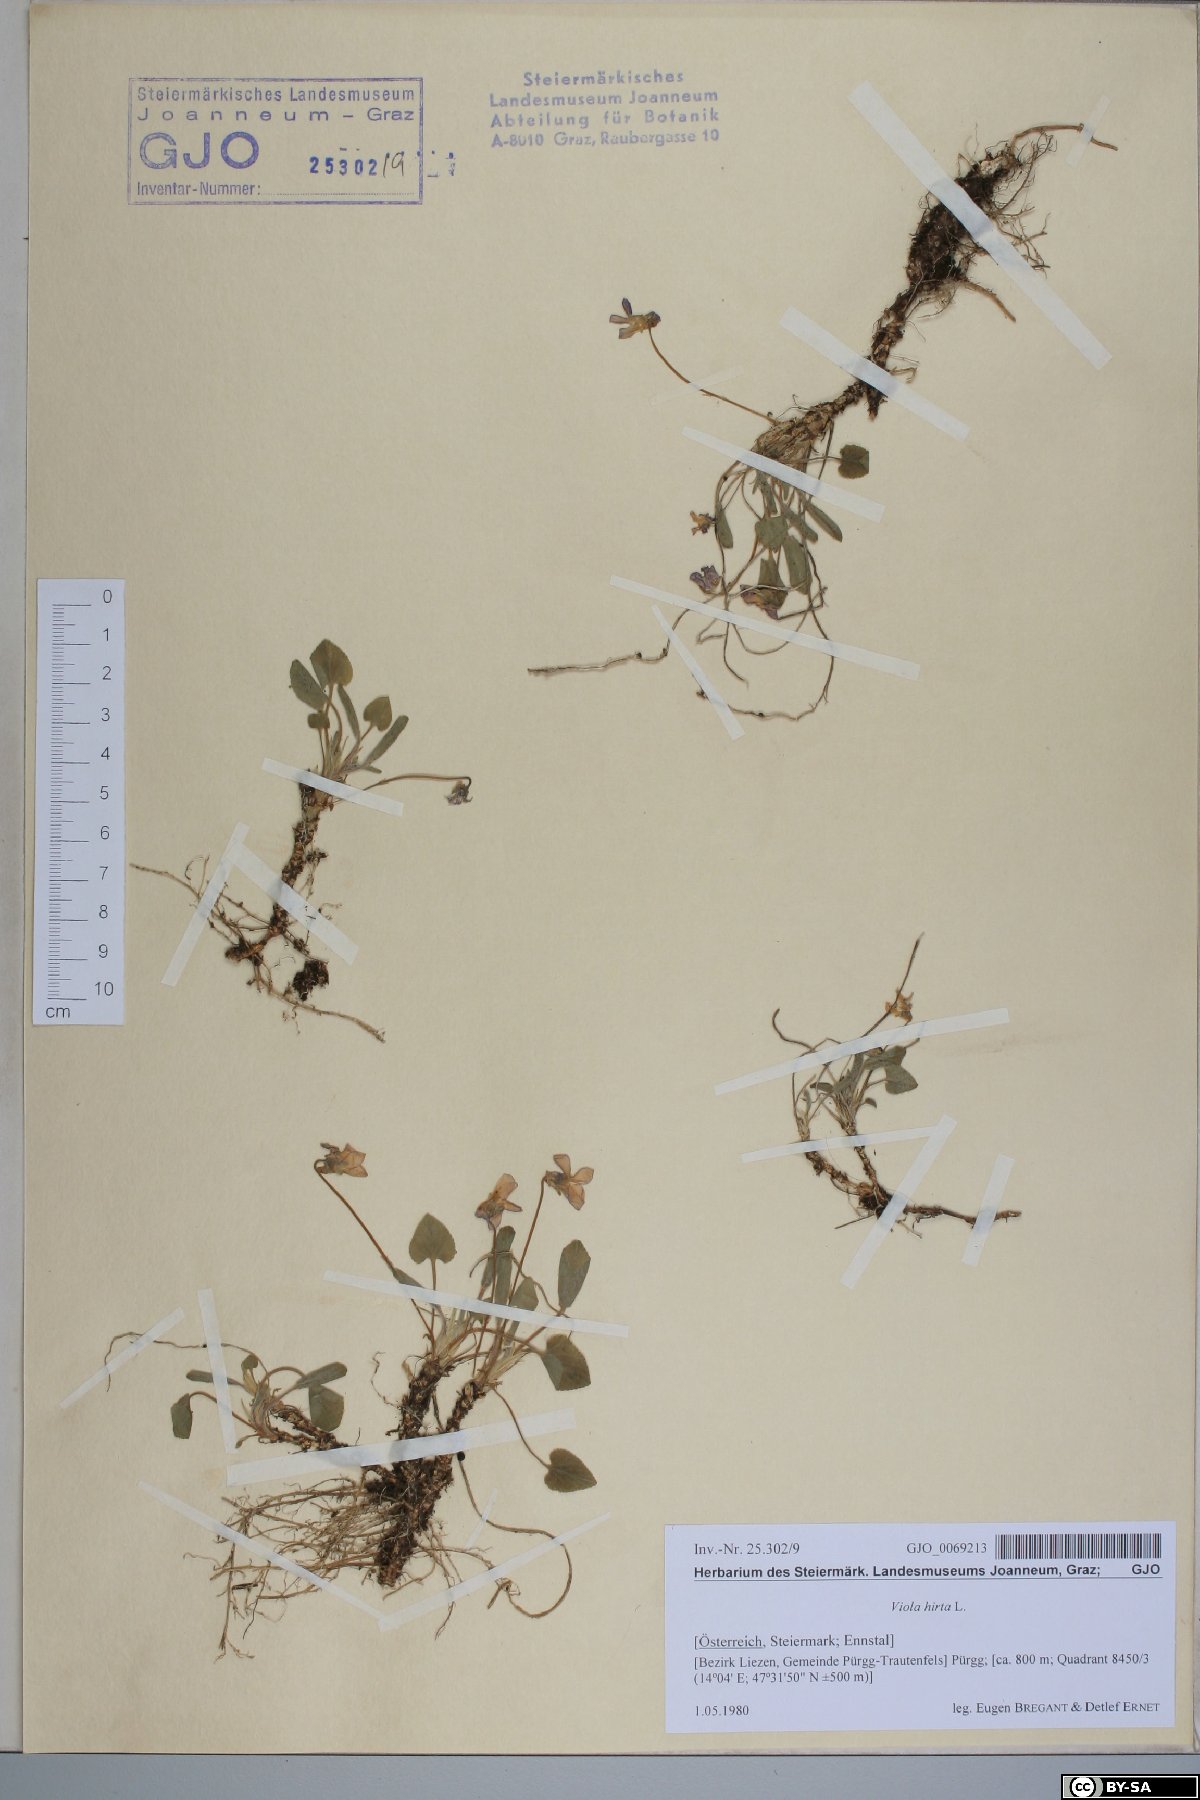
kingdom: Plantae
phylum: Tracheophyta
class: Magnoliopsida
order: Malpighiales
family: Violaceae
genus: Viola
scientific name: Viola hirta
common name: Hairy violet
